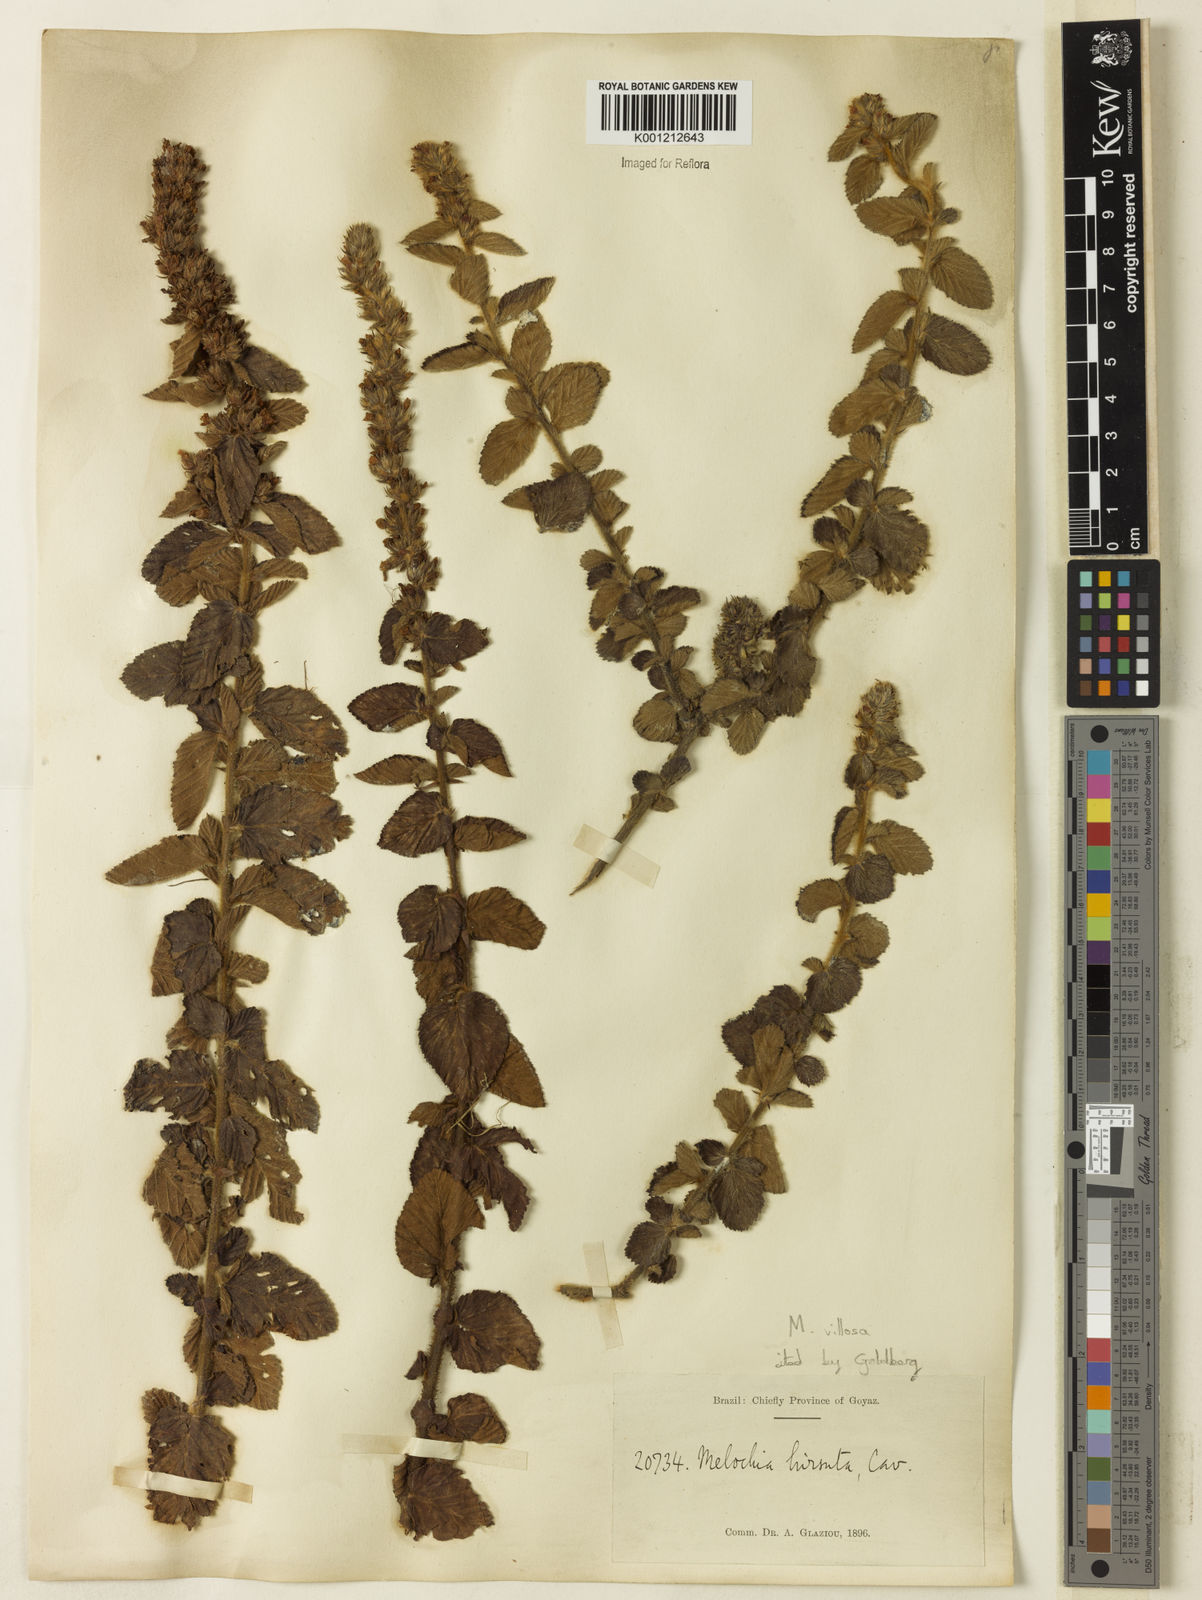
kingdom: Plantae
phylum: Tracheophyta
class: Magnoliopsida
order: Malvales
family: Malvaceae
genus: Melochia
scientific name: Melochia spicata
